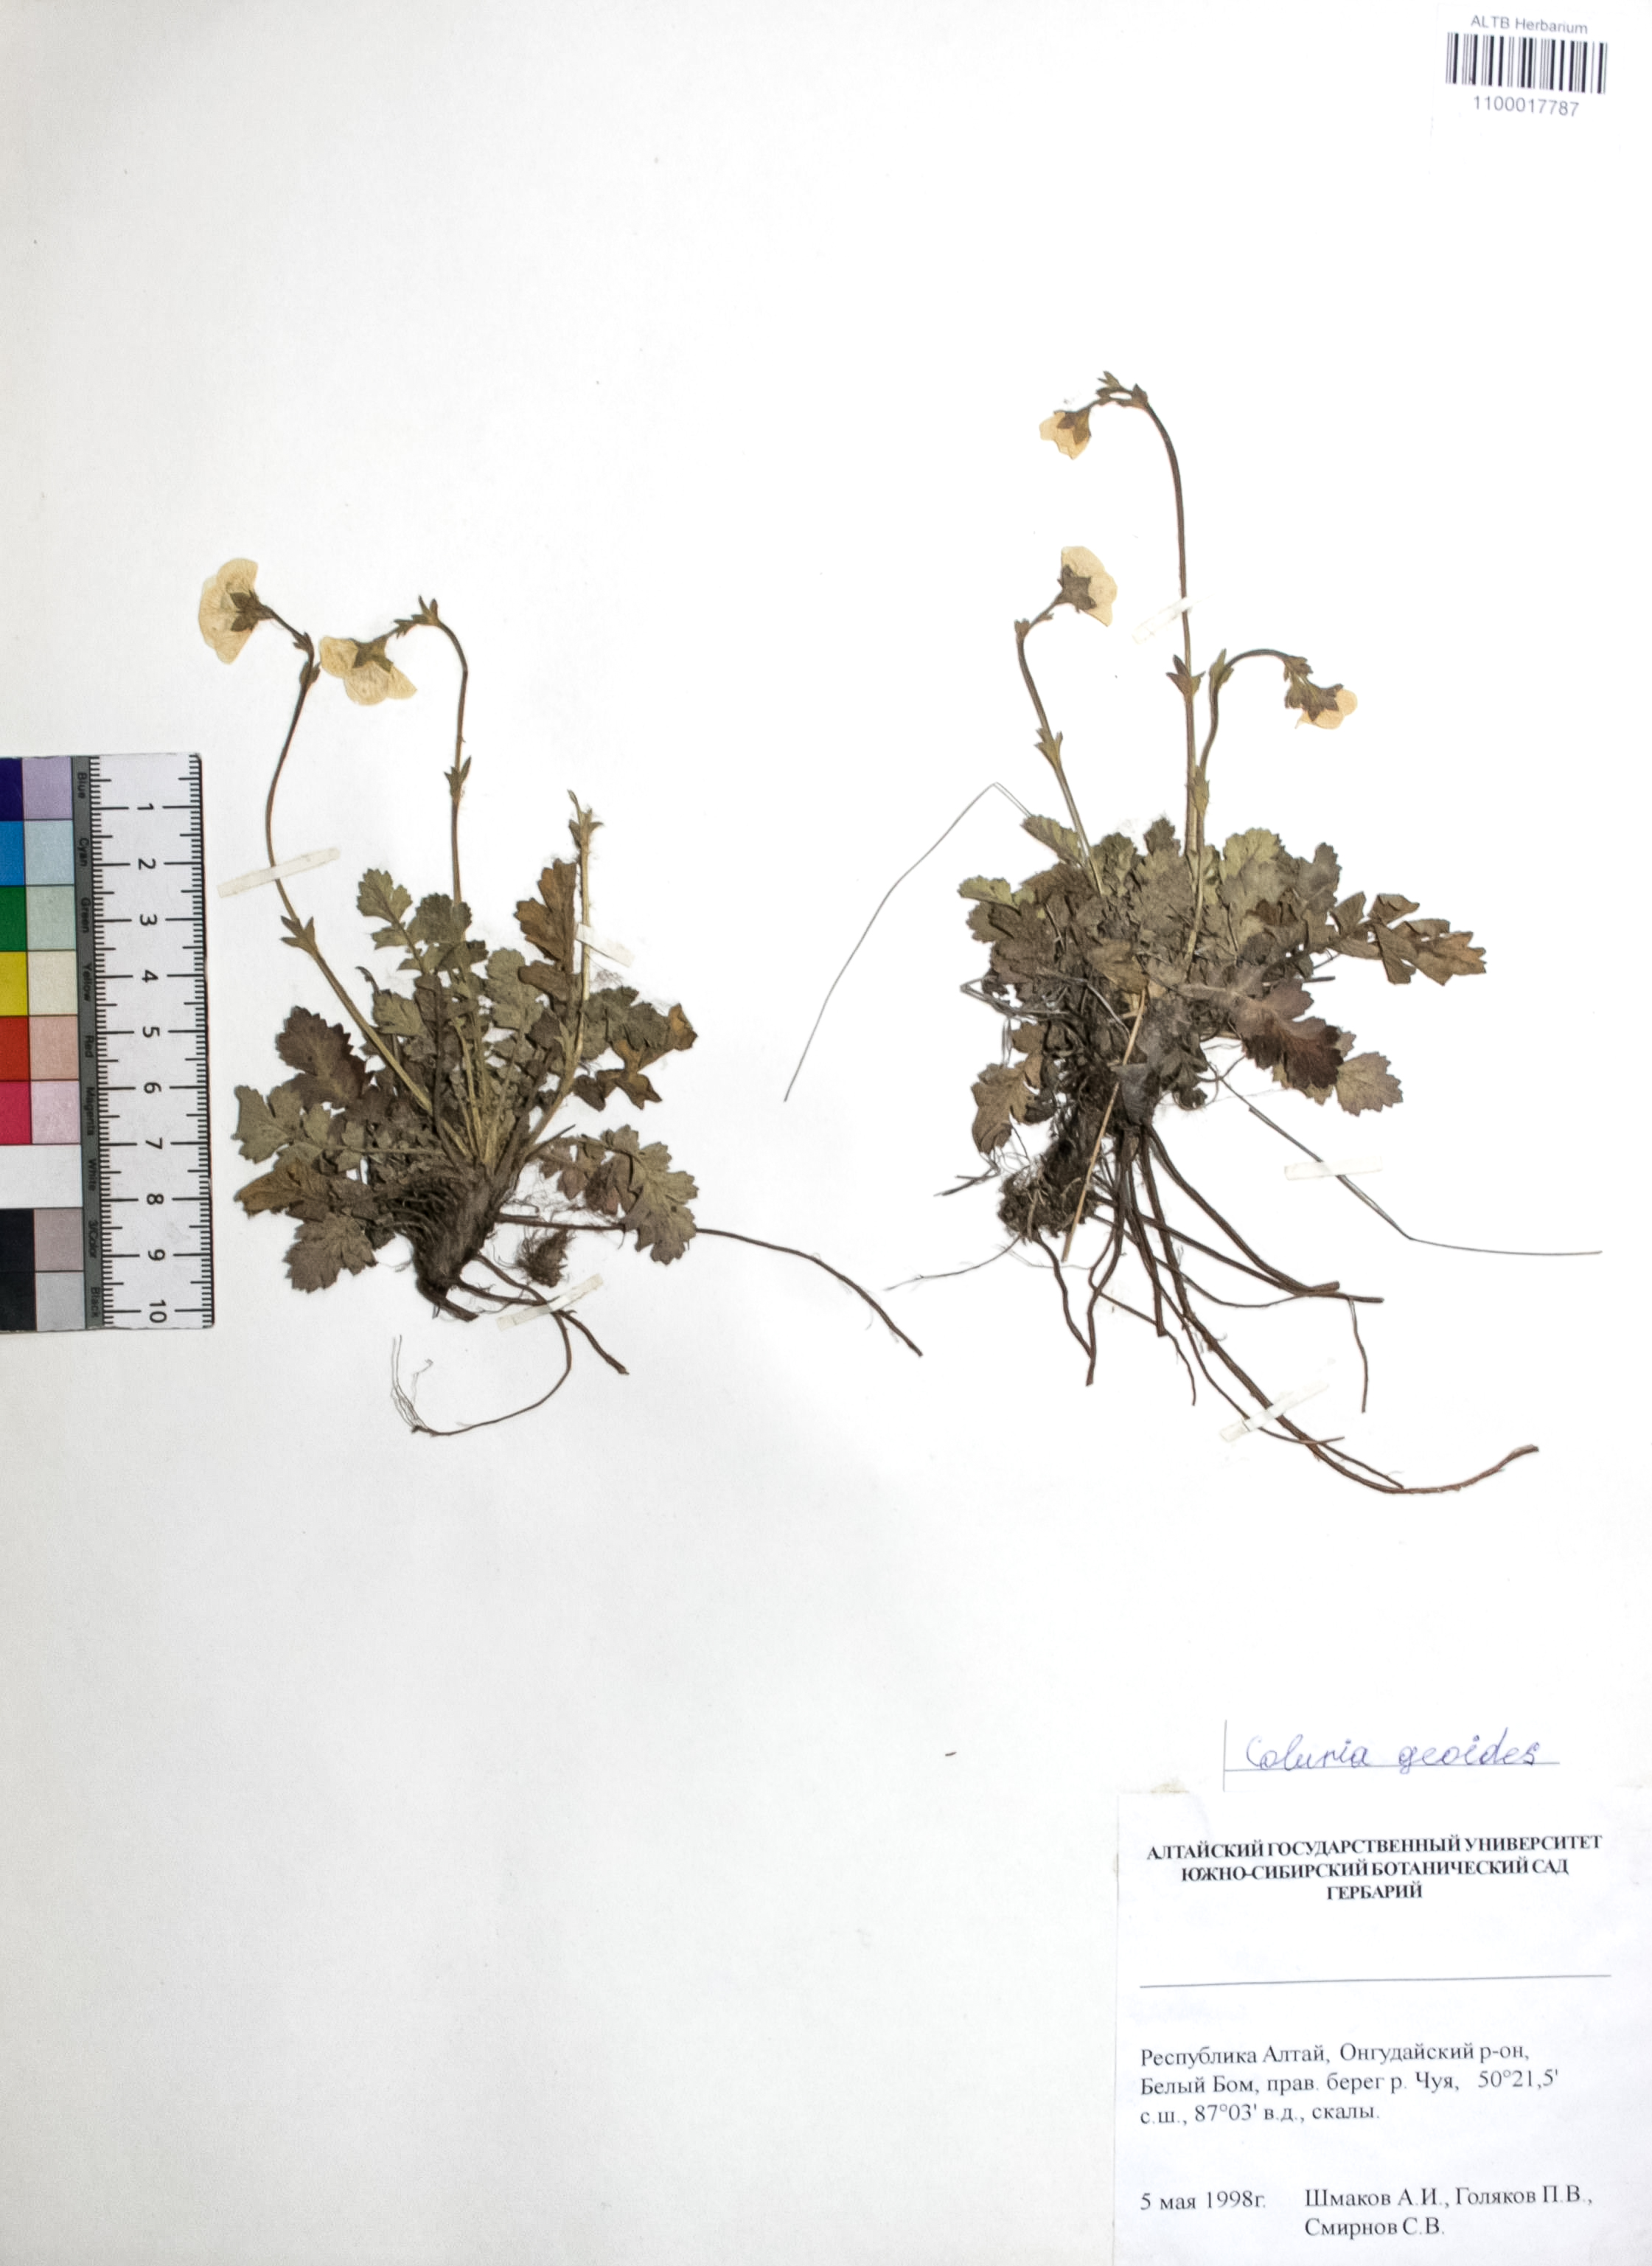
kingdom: Plantae
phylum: Tracheophyta
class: Magnoliopsida
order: Rosales
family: Rosaceae
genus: Geum
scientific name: Geum geoides
